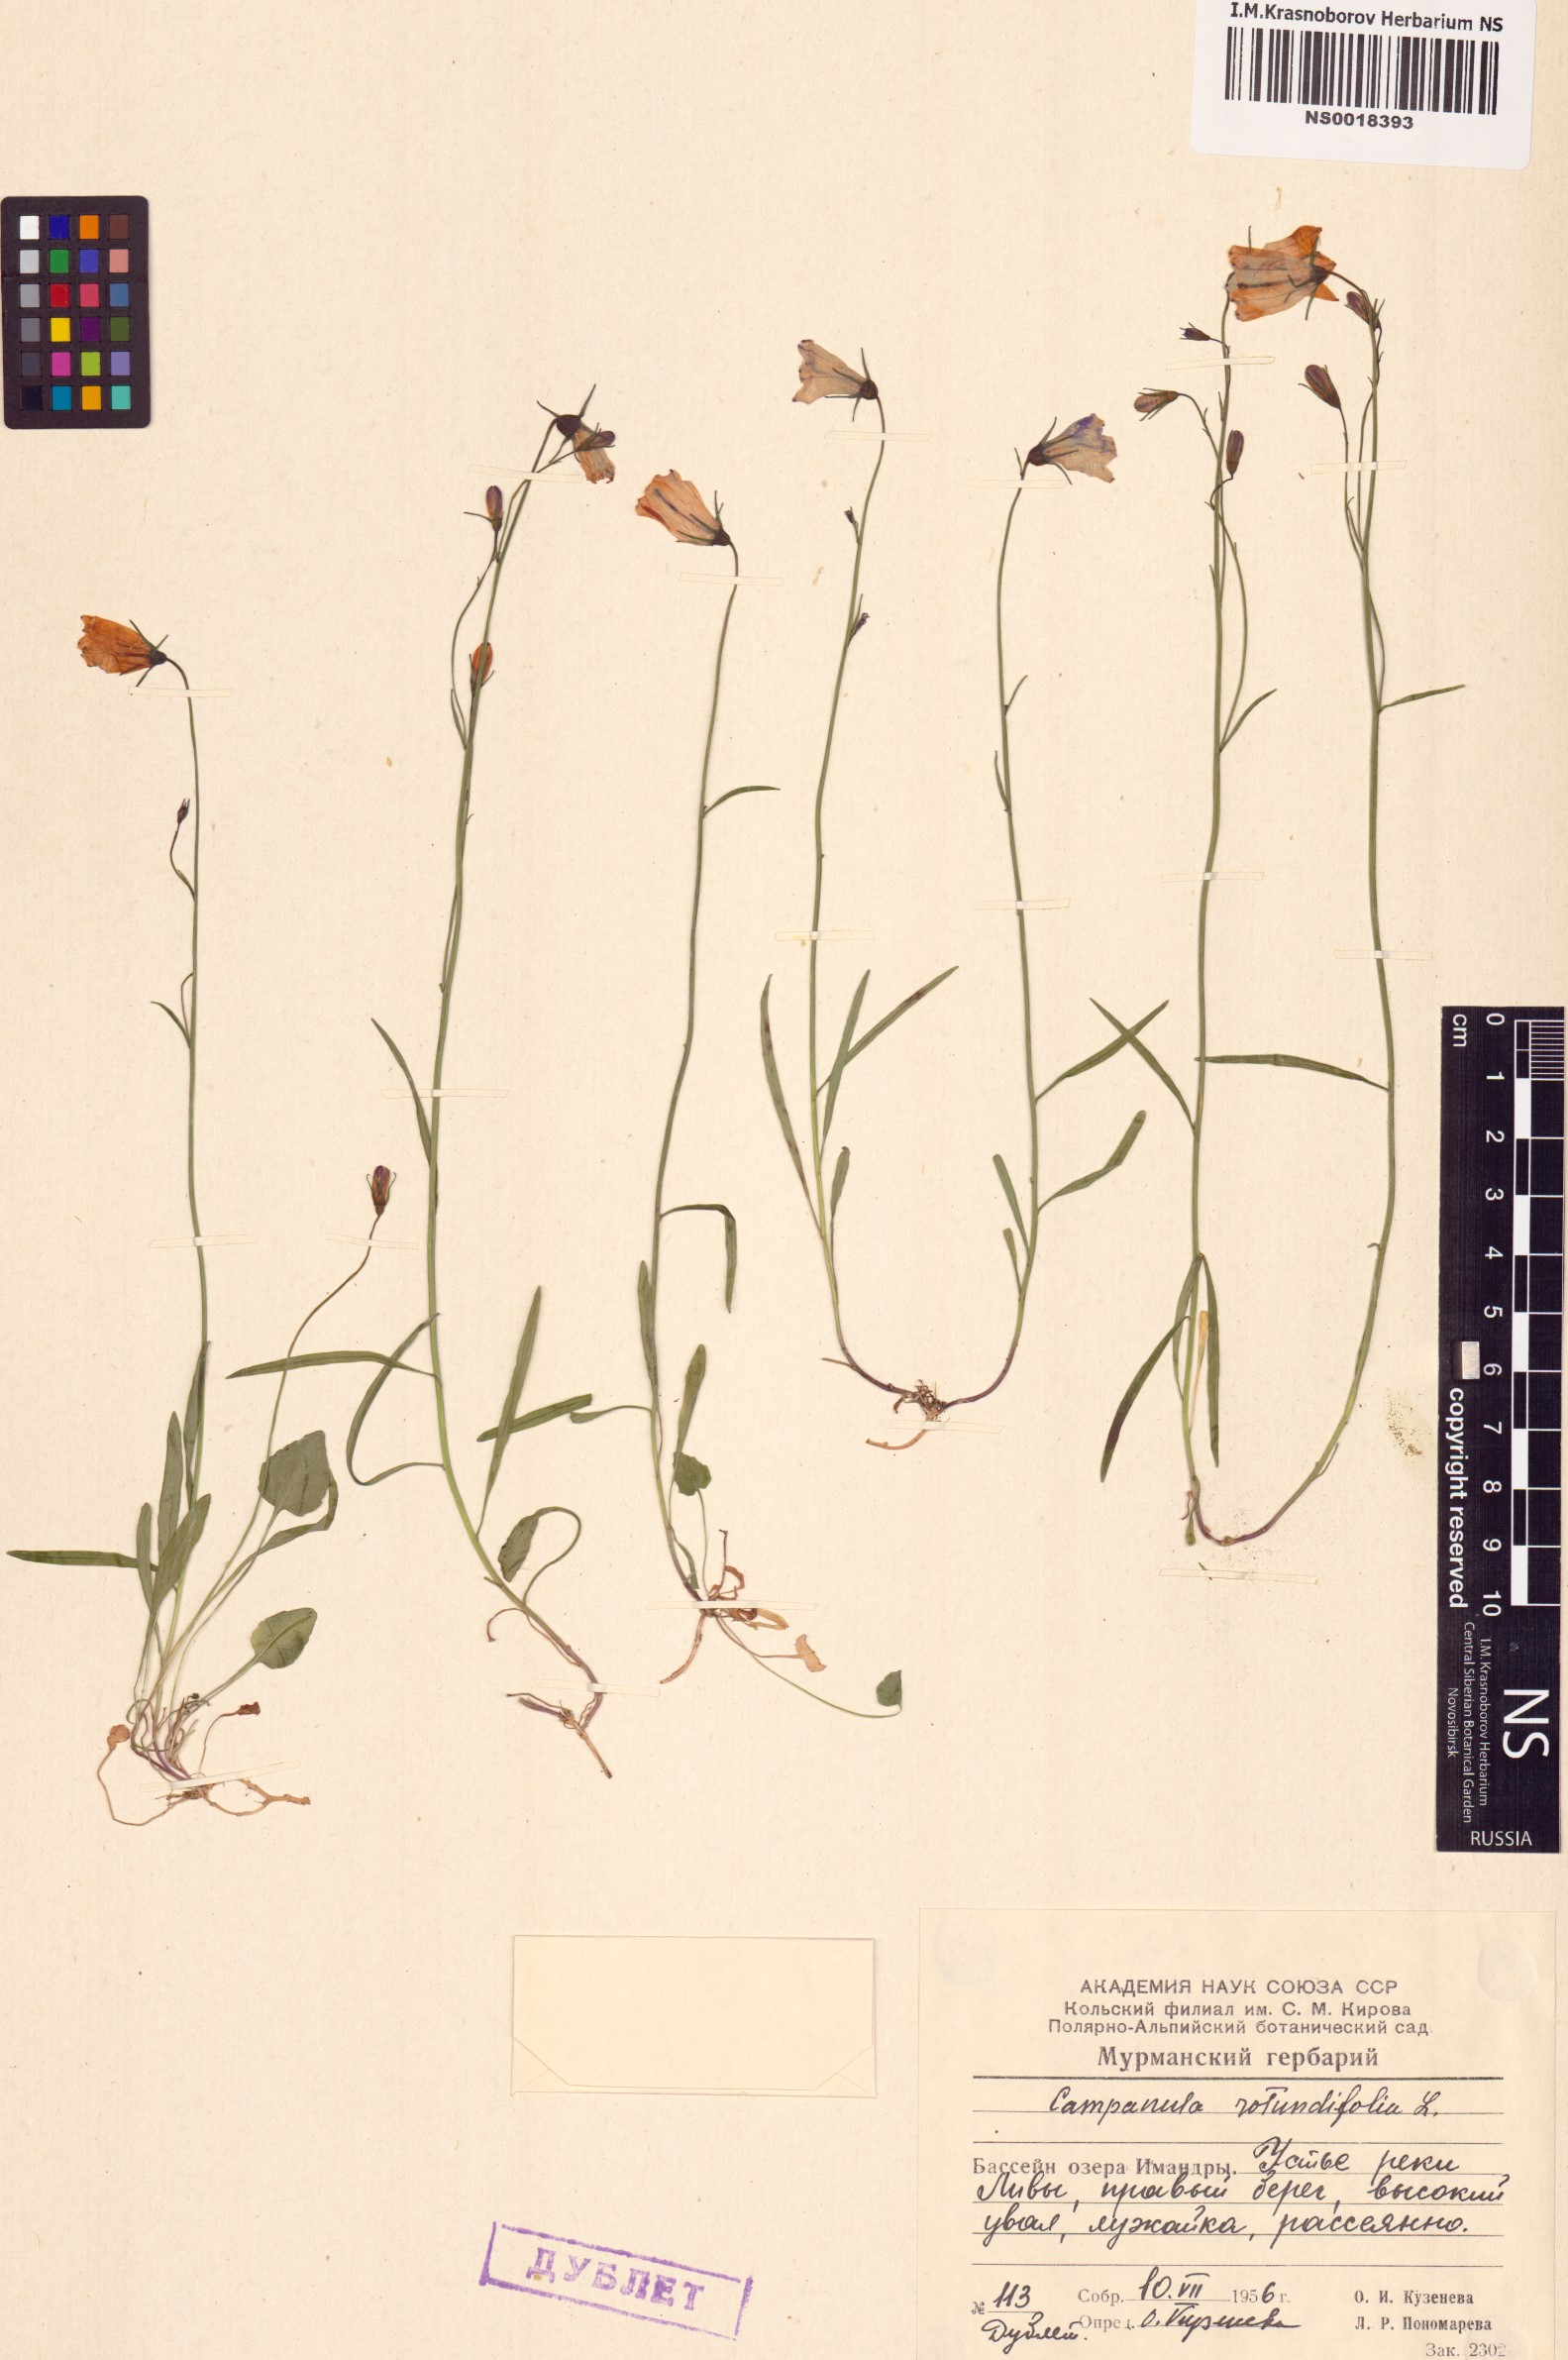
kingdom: Plantae
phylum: Tracheophyta
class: Magnoliopsida
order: Asterales
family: Campanulaceae
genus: Campanula
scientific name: Campanula rotundifolia
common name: Harebell
